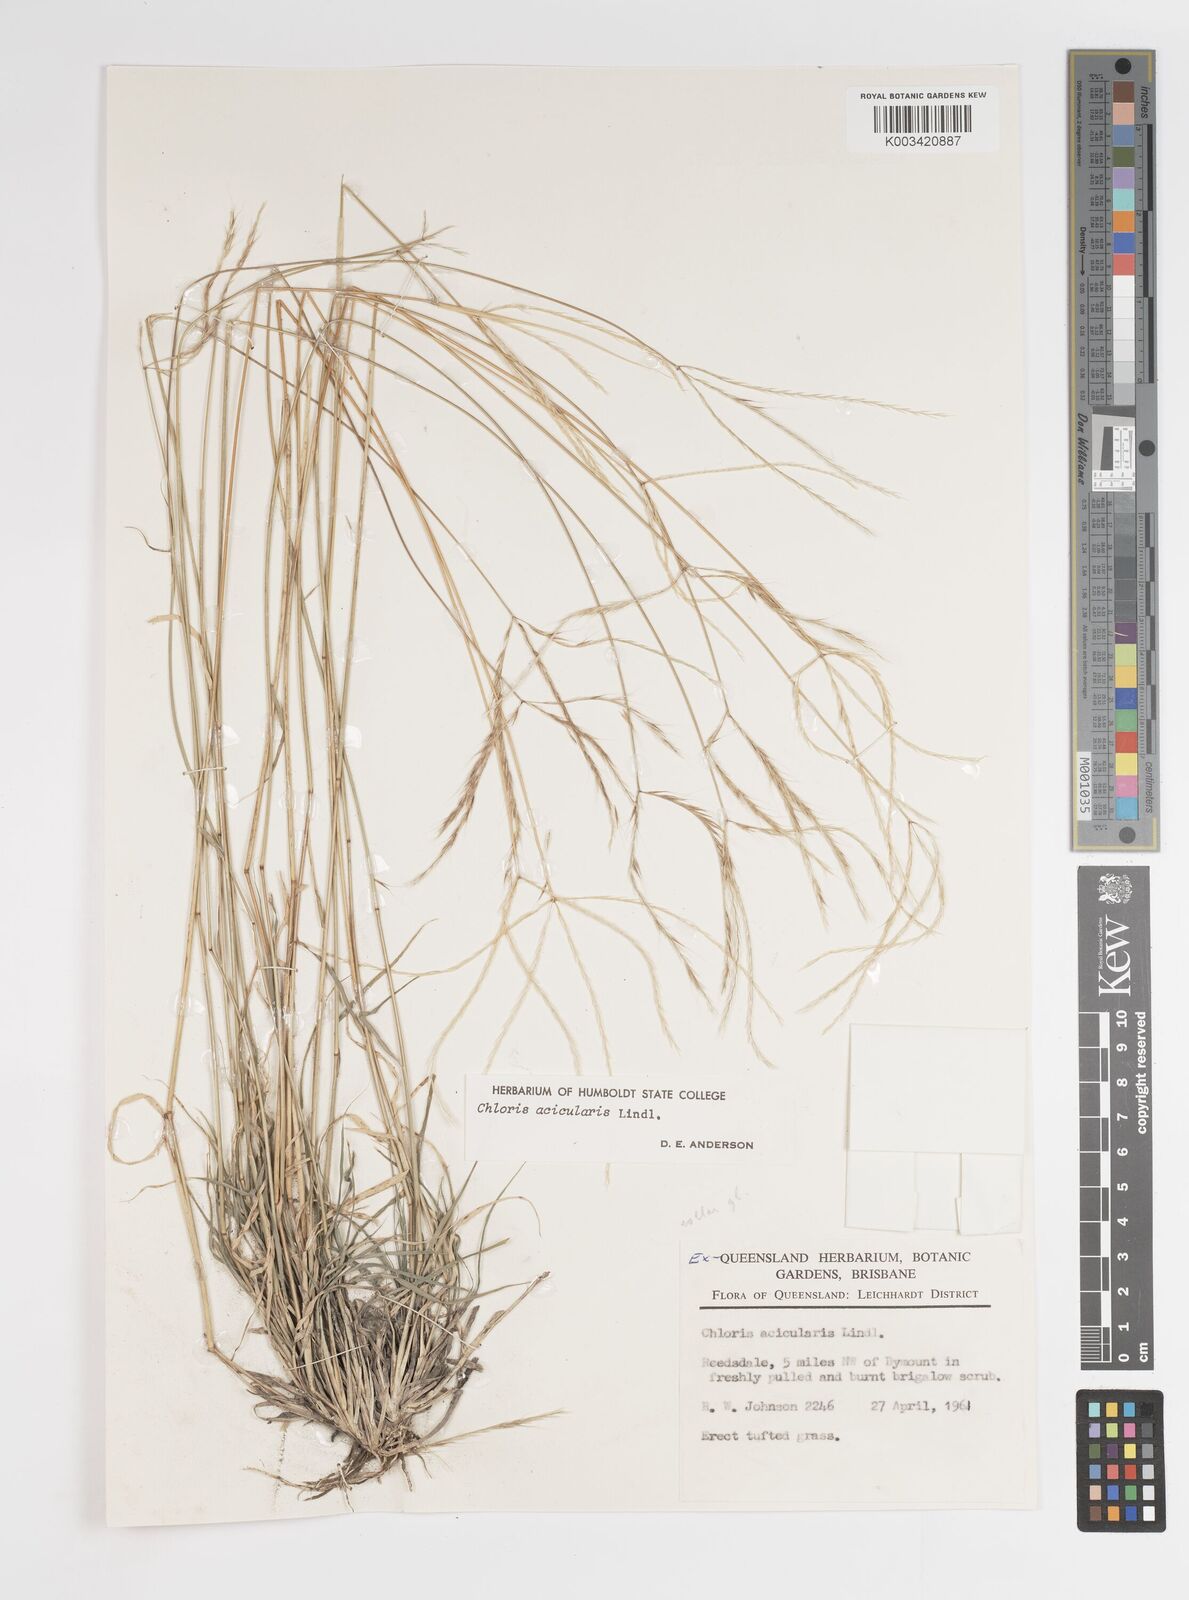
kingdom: Plantae
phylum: Tracheophyta
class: Liliopsida
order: Poales
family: Poaceae
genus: Enteropogon
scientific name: Enteropogon paucispiceus
